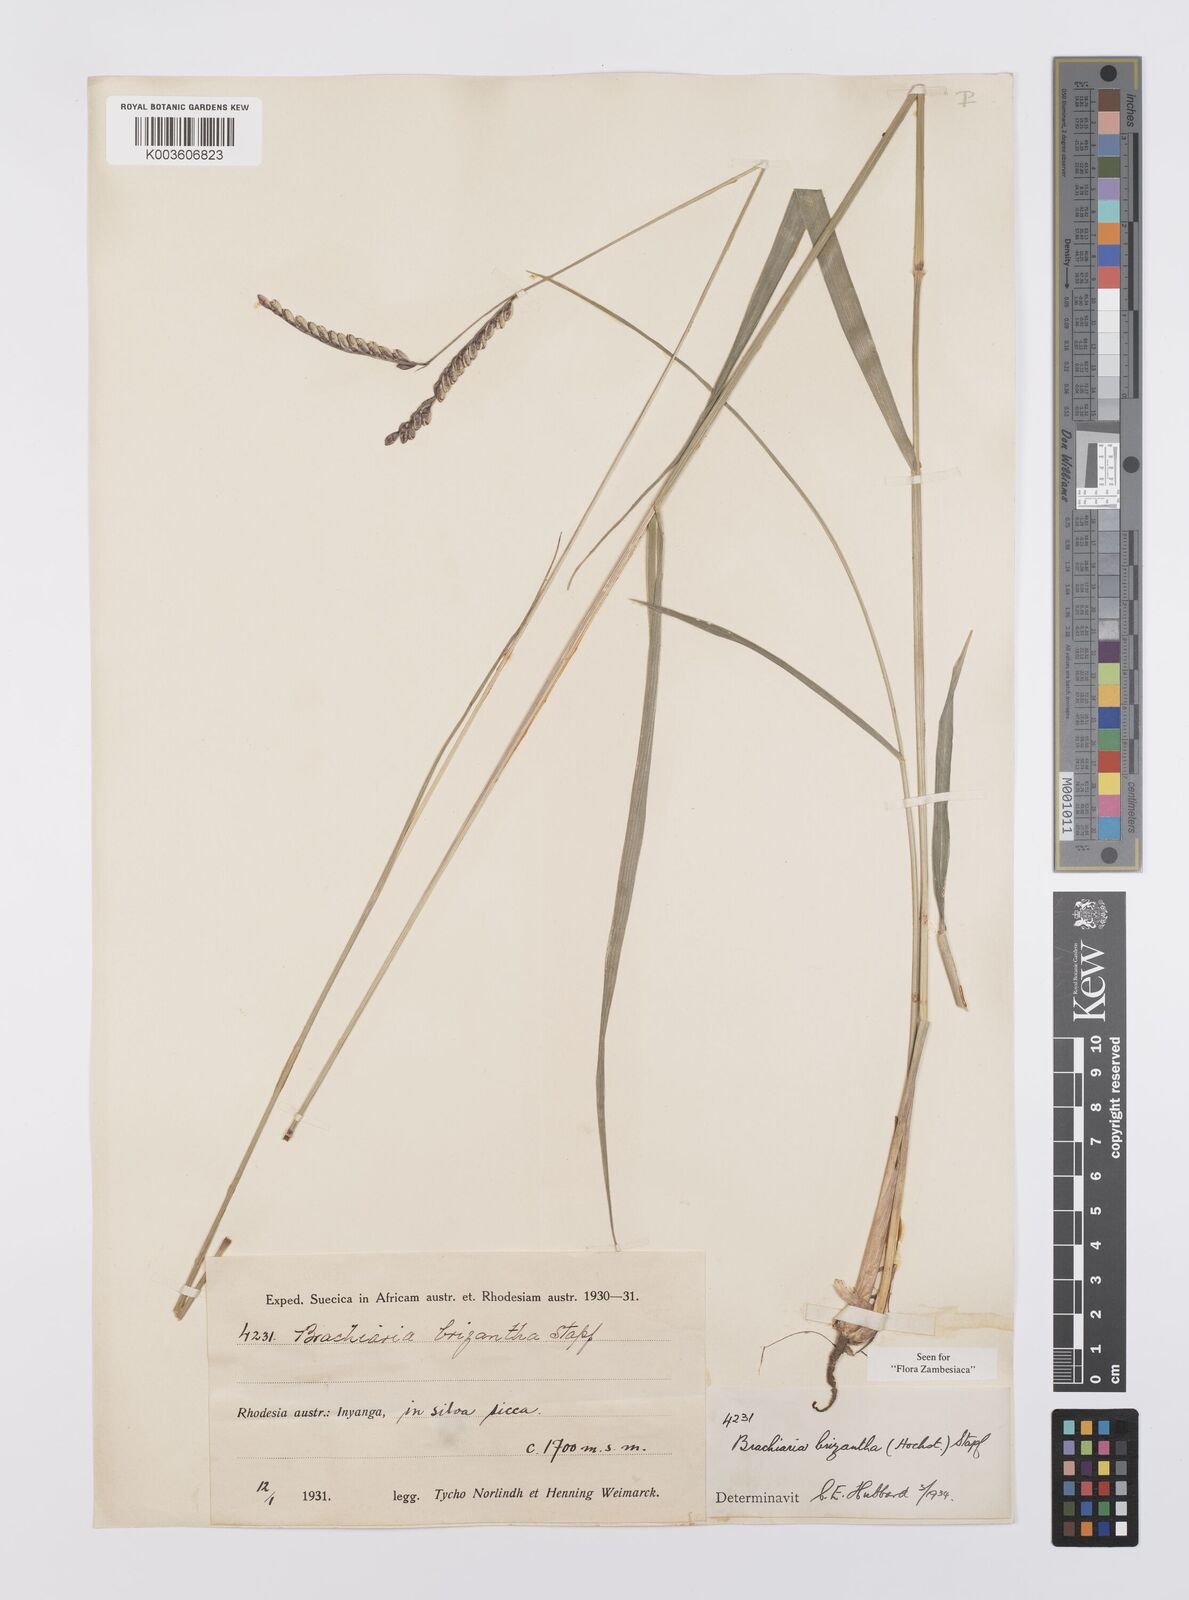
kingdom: Plantae
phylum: Tracheophyta
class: Liliopsida
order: Poales
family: Poaceae
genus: Urochloa
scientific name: Urochloa brizantha
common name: Palisade signalgrass
